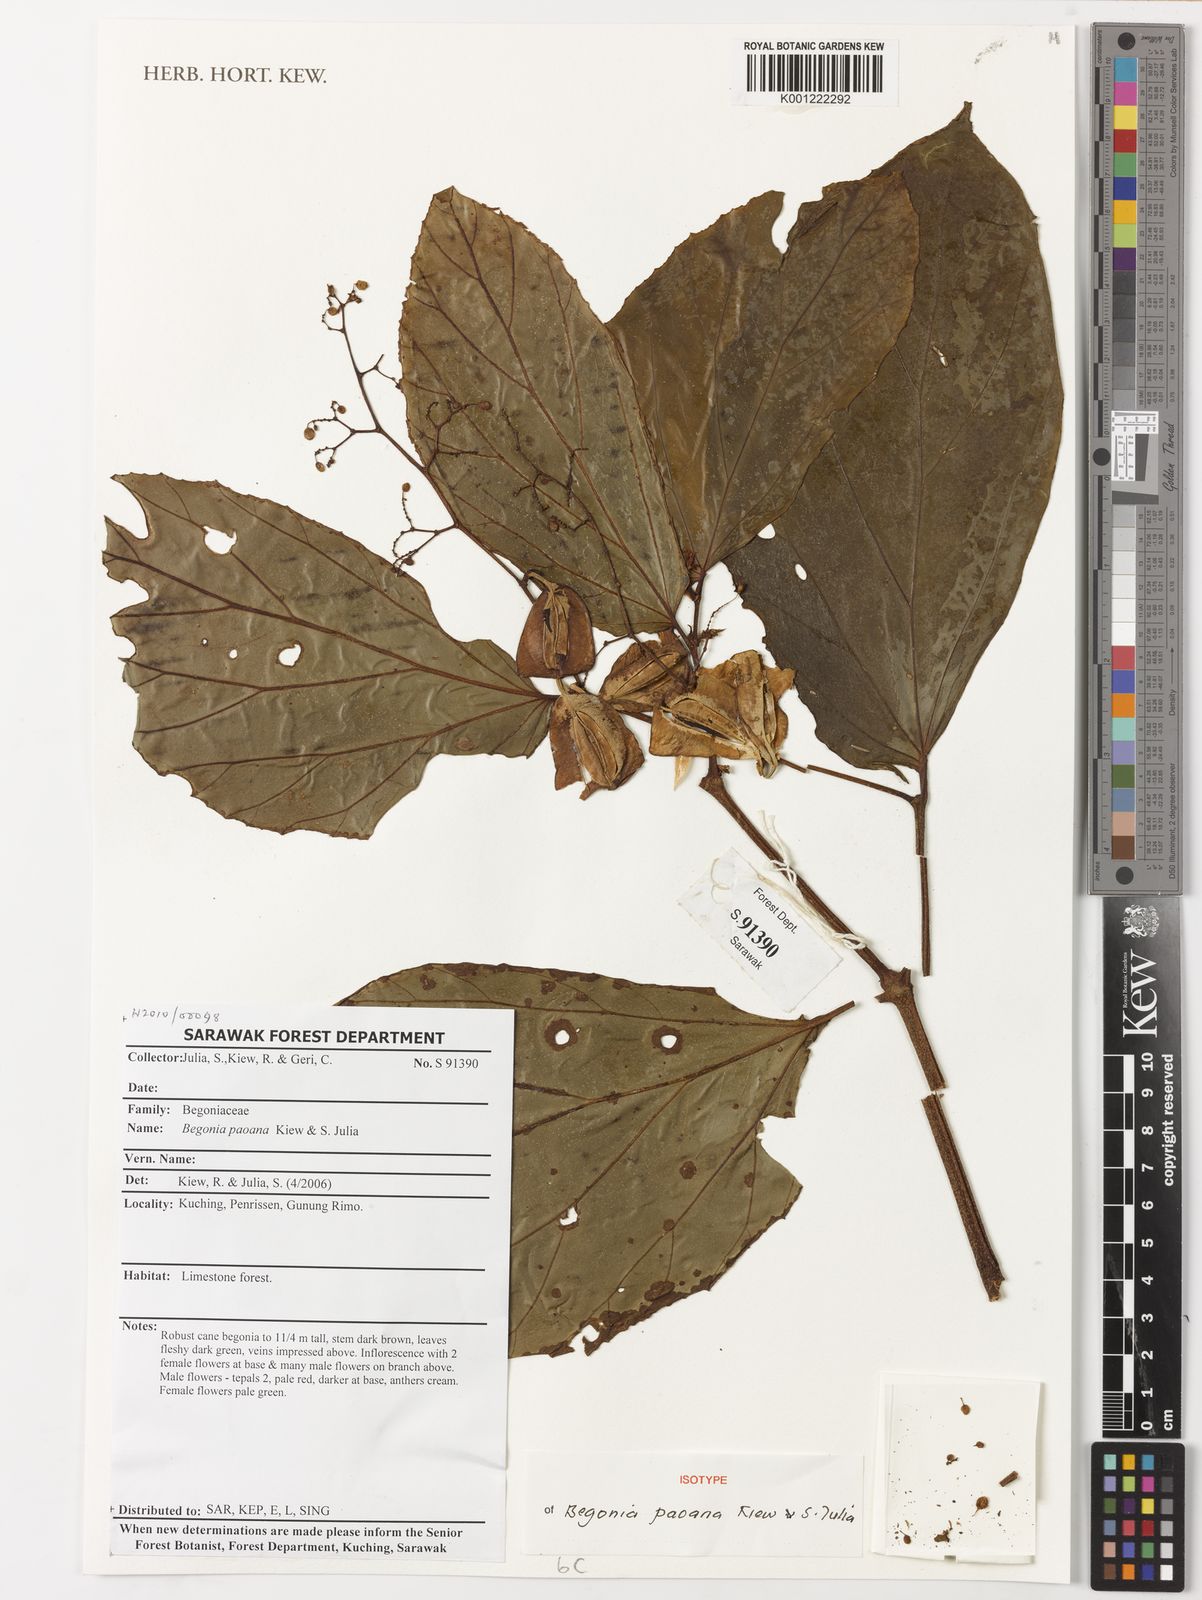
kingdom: Plantae
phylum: Tracheophyta
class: Magnoliopsida
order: Cucurbitales
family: Begoniaceae
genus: Begonia
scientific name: Begonia
